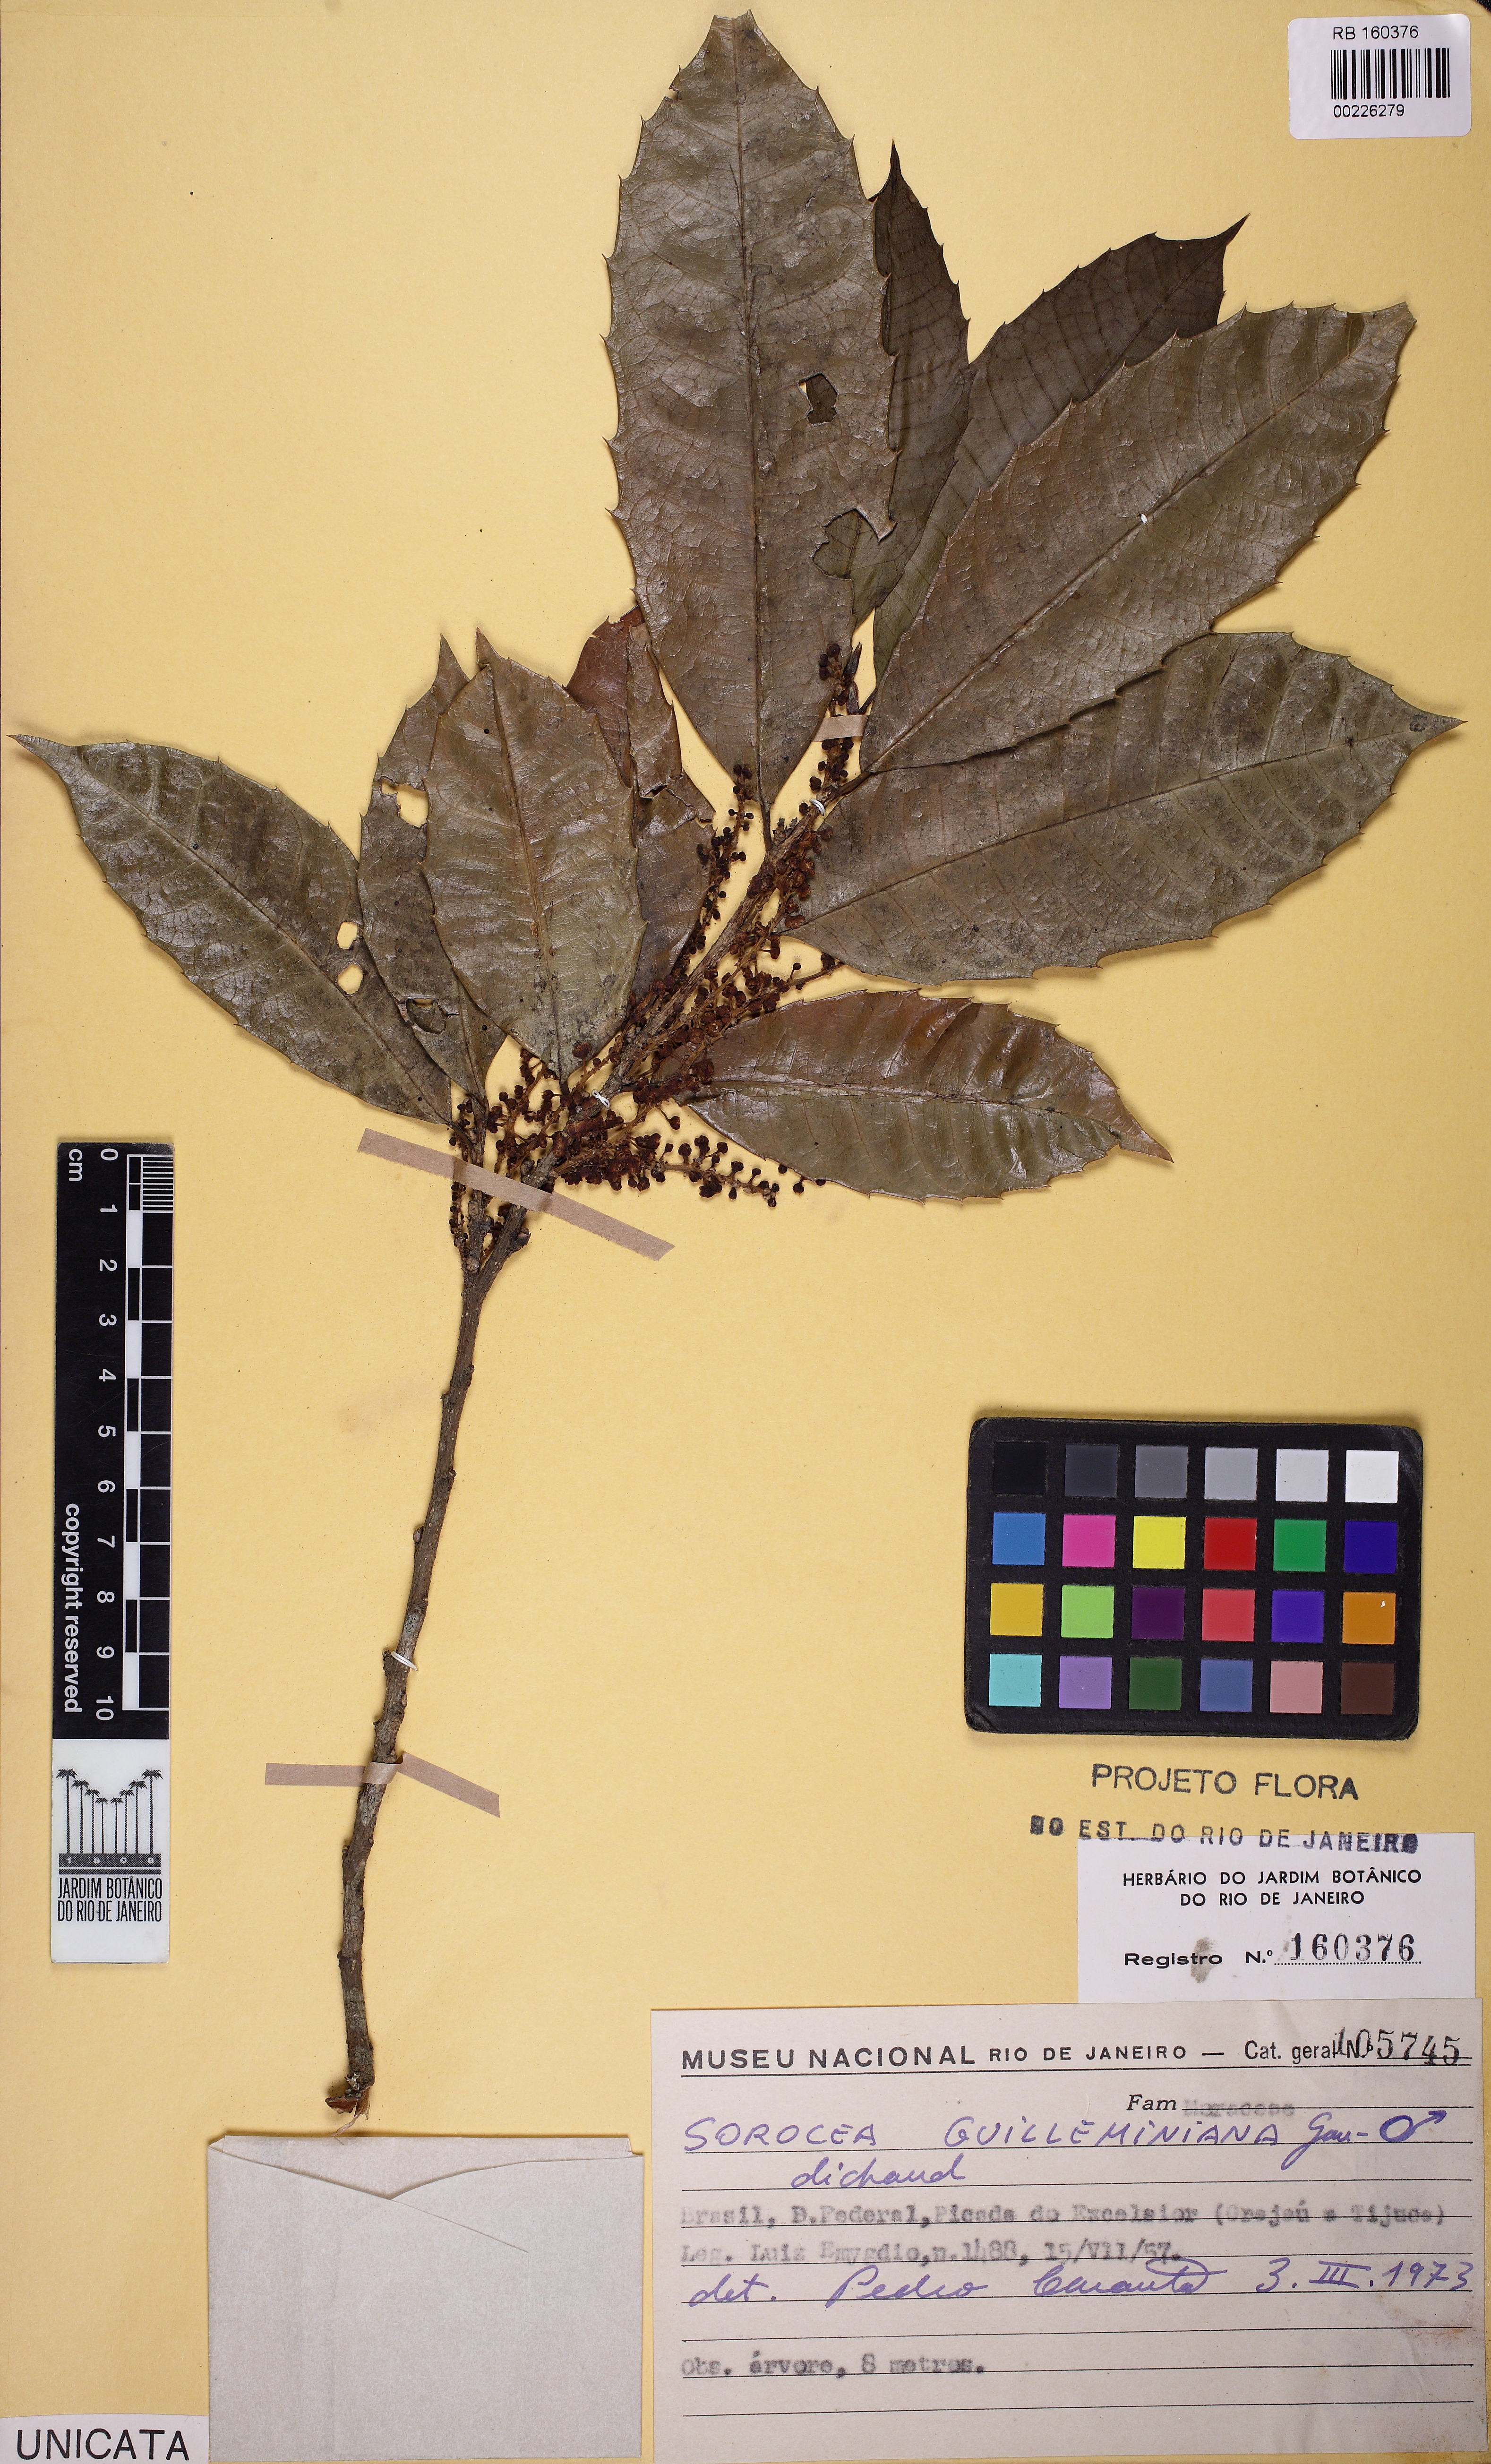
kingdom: Plantae
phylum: Tracheophyta
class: Magnoliopsida
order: Rosales
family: Moraceae
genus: Sorocea
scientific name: Sorocea guilleminiana
